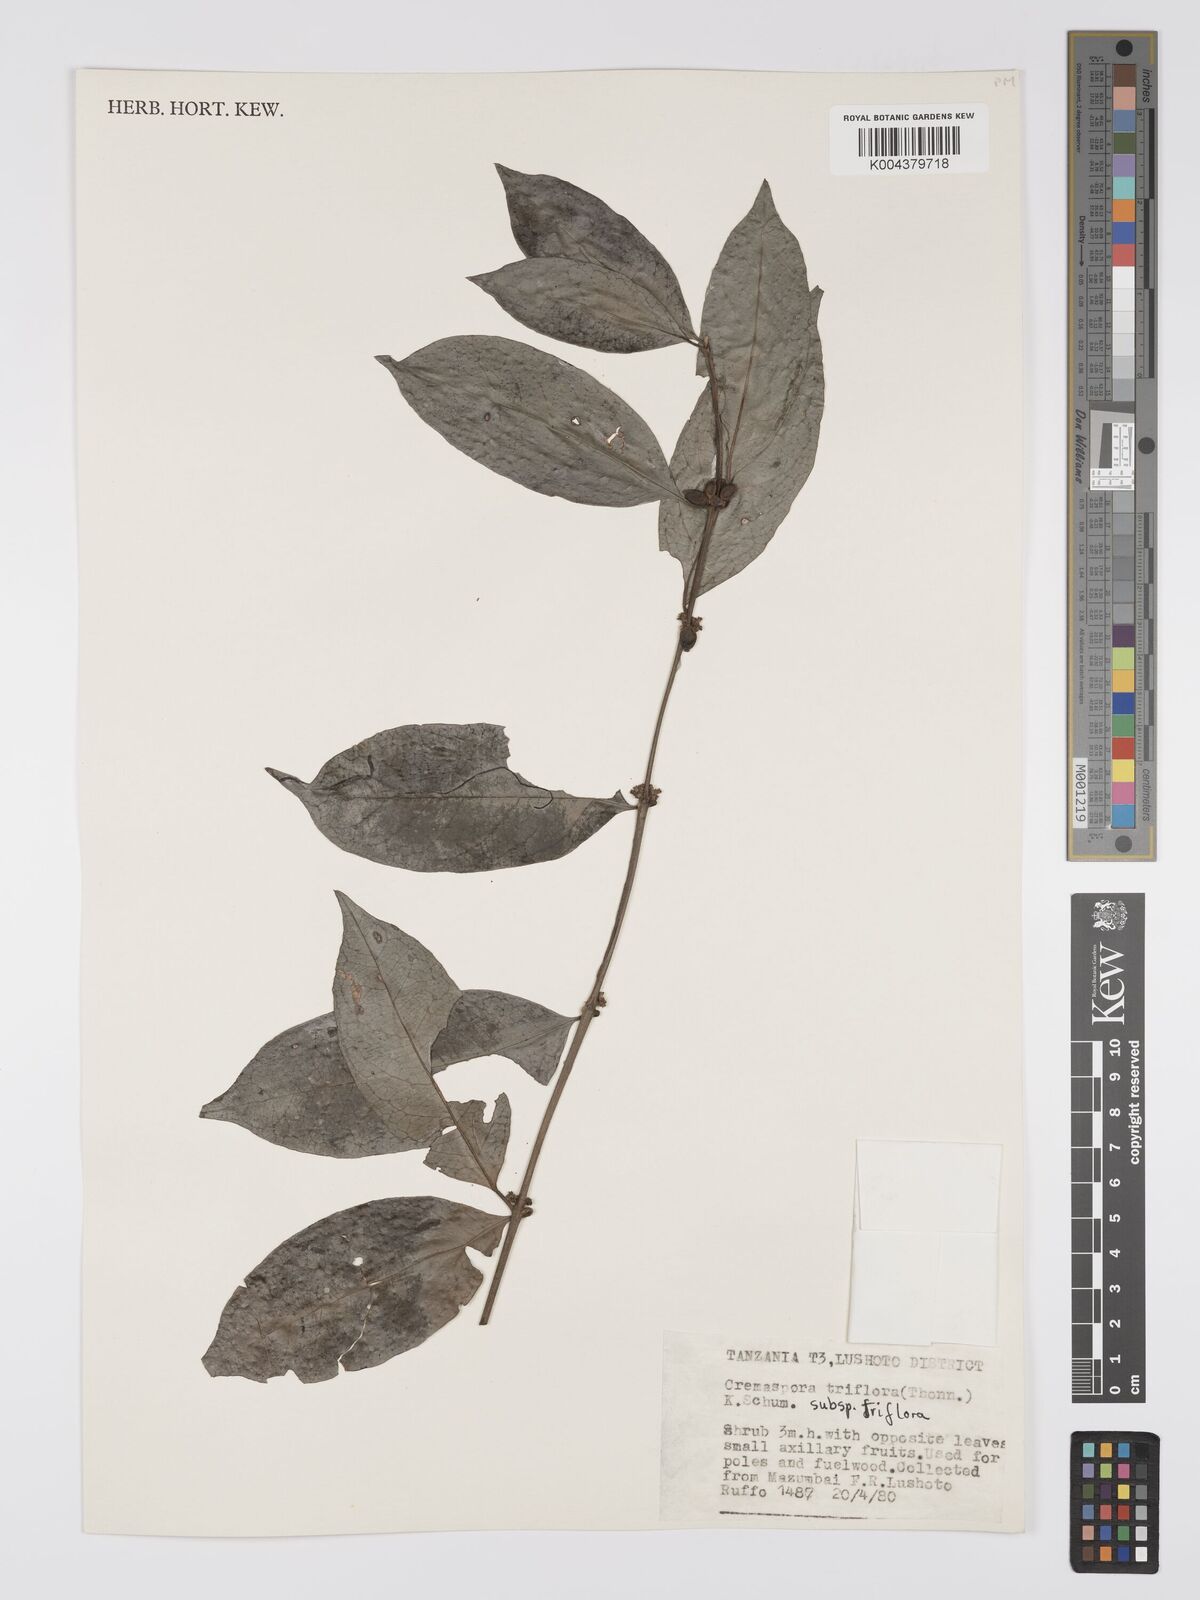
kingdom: Plantae
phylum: Tracheophyta
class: Magnoliopsida
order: Gentianales
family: Rubiaceae
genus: Cremaspora
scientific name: Cremaspora triflora
